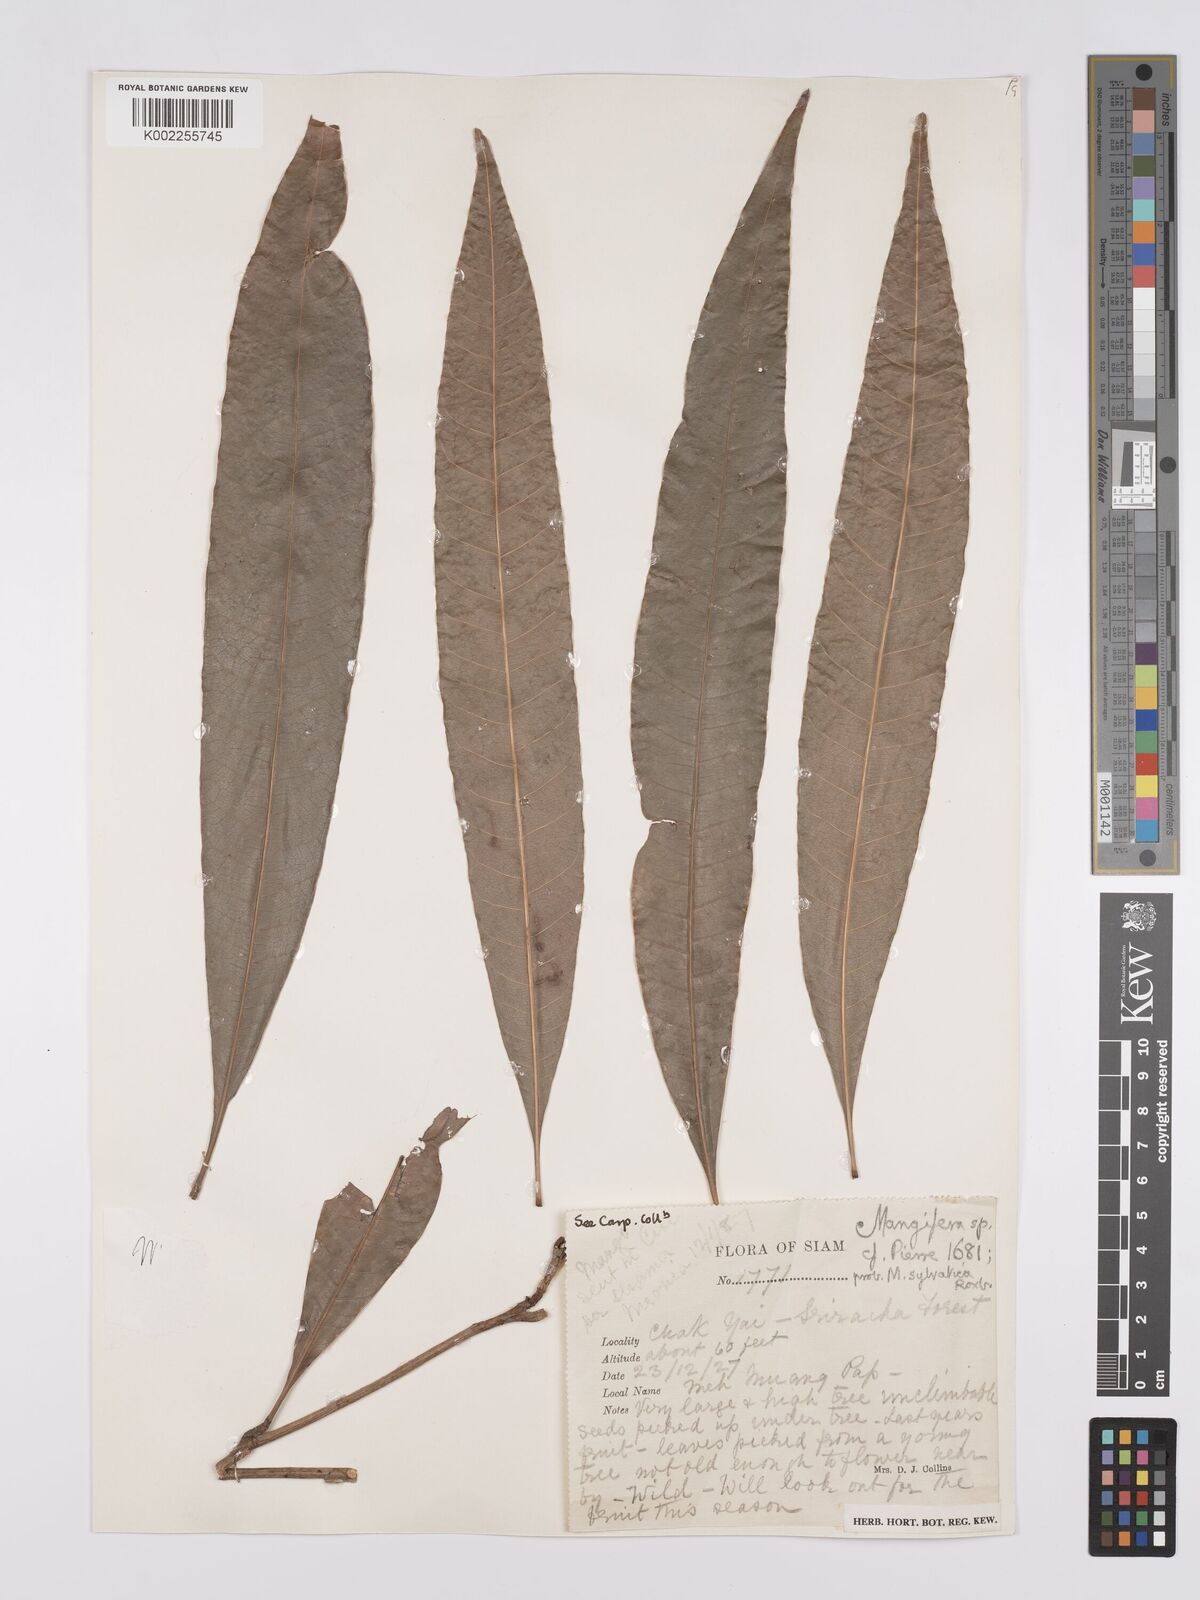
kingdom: Plantae
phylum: Tracheophyta
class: Magnoliopsida
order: Sapindales
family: Anacardiaceae
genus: Mangifera
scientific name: Mangifera odorata
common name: Saipan mango
